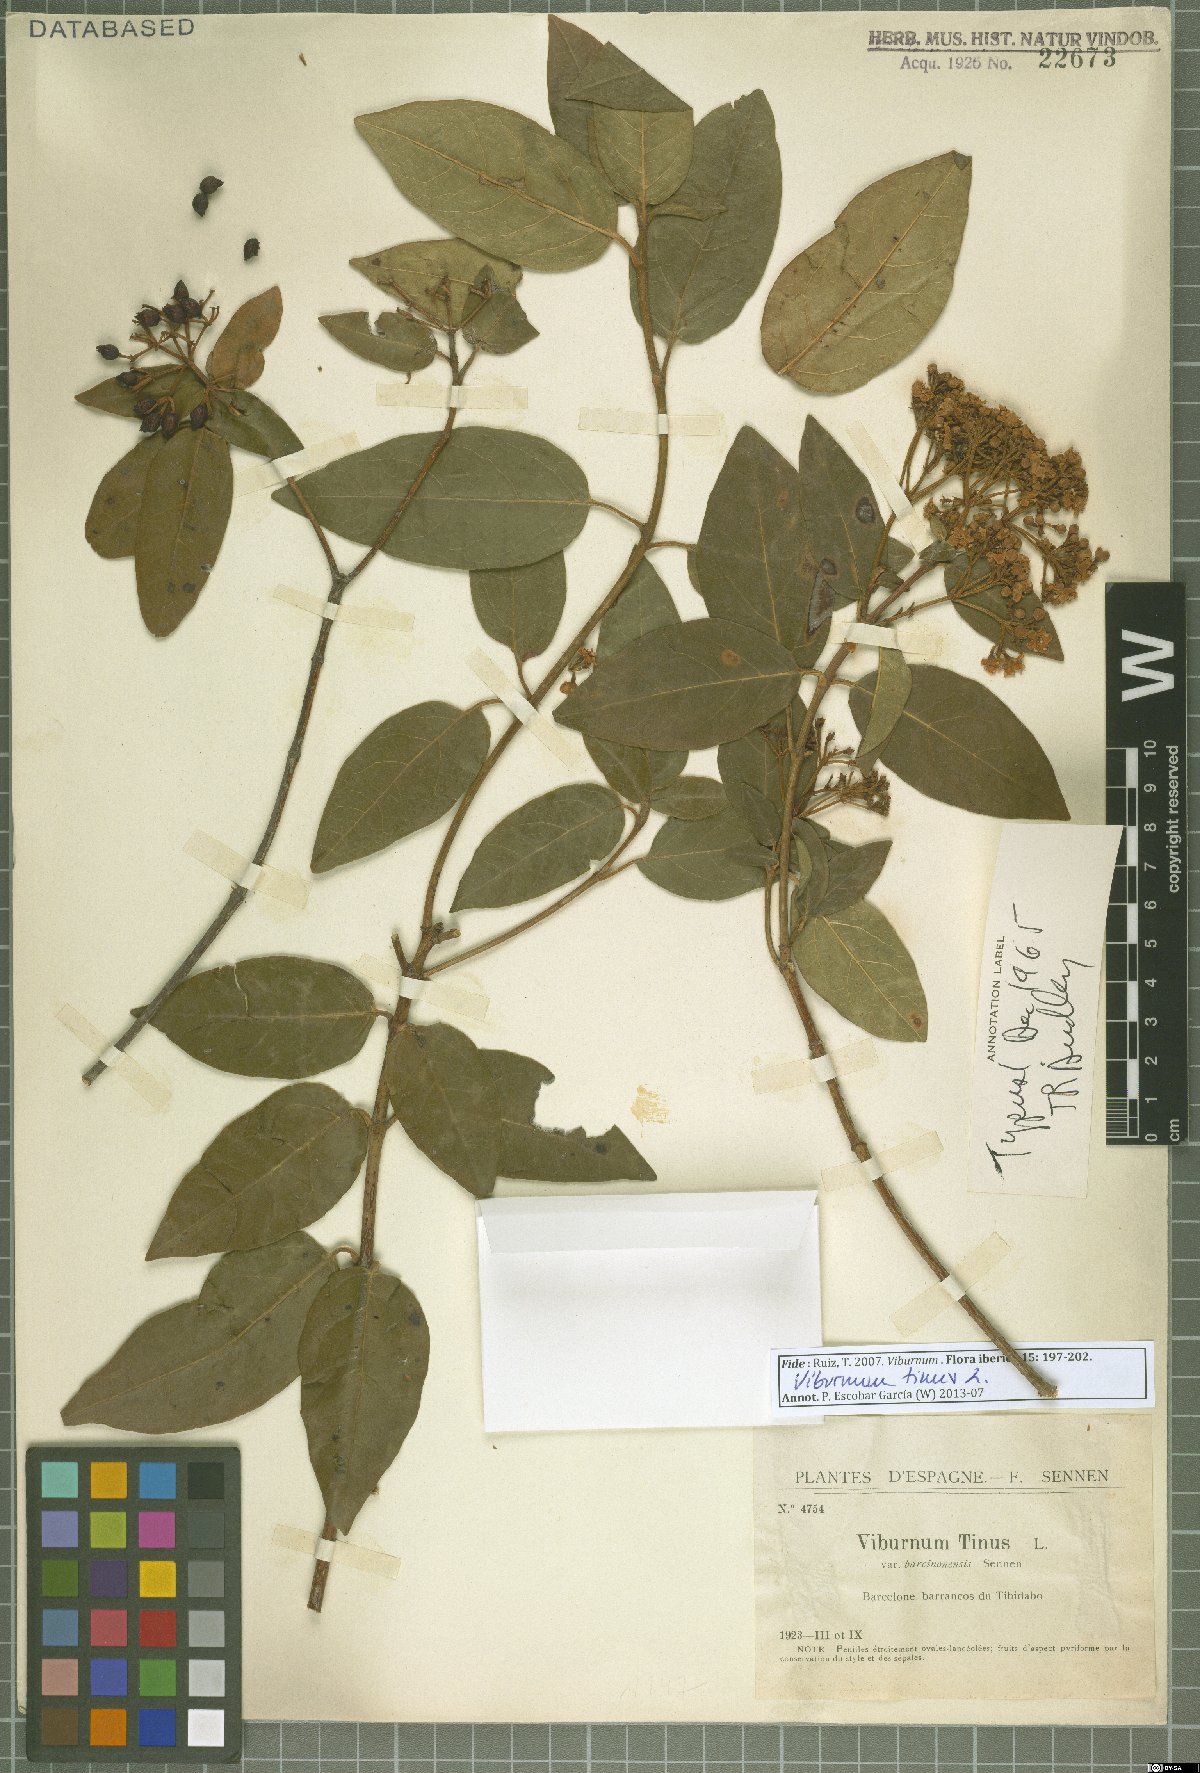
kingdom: Plantae
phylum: Tracheophyta
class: Magnoliopsida
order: Dipsacales
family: Viburnaceae
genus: Viburnum
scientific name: Viburnum tinus
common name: Laurustinus
